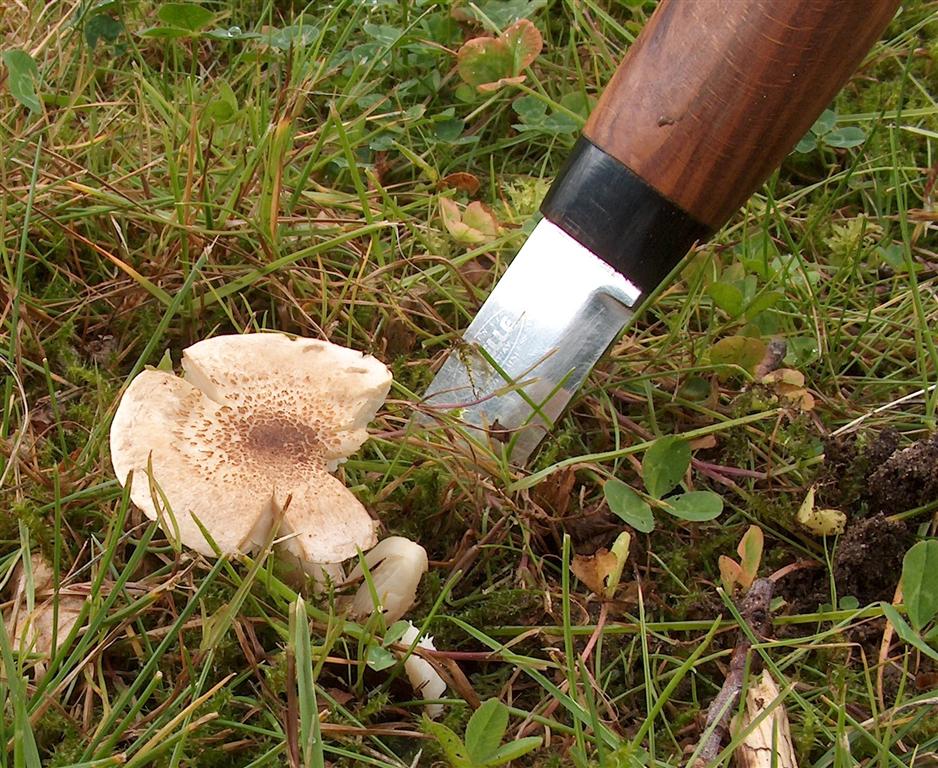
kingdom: Fungi
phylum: Basidiomycota
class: Agaricomycetes
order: Agaricales
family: Tricholomataceae
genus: Tricholoma
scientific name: Tricholoma scalpturatum
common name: gulplettet ridderhat
